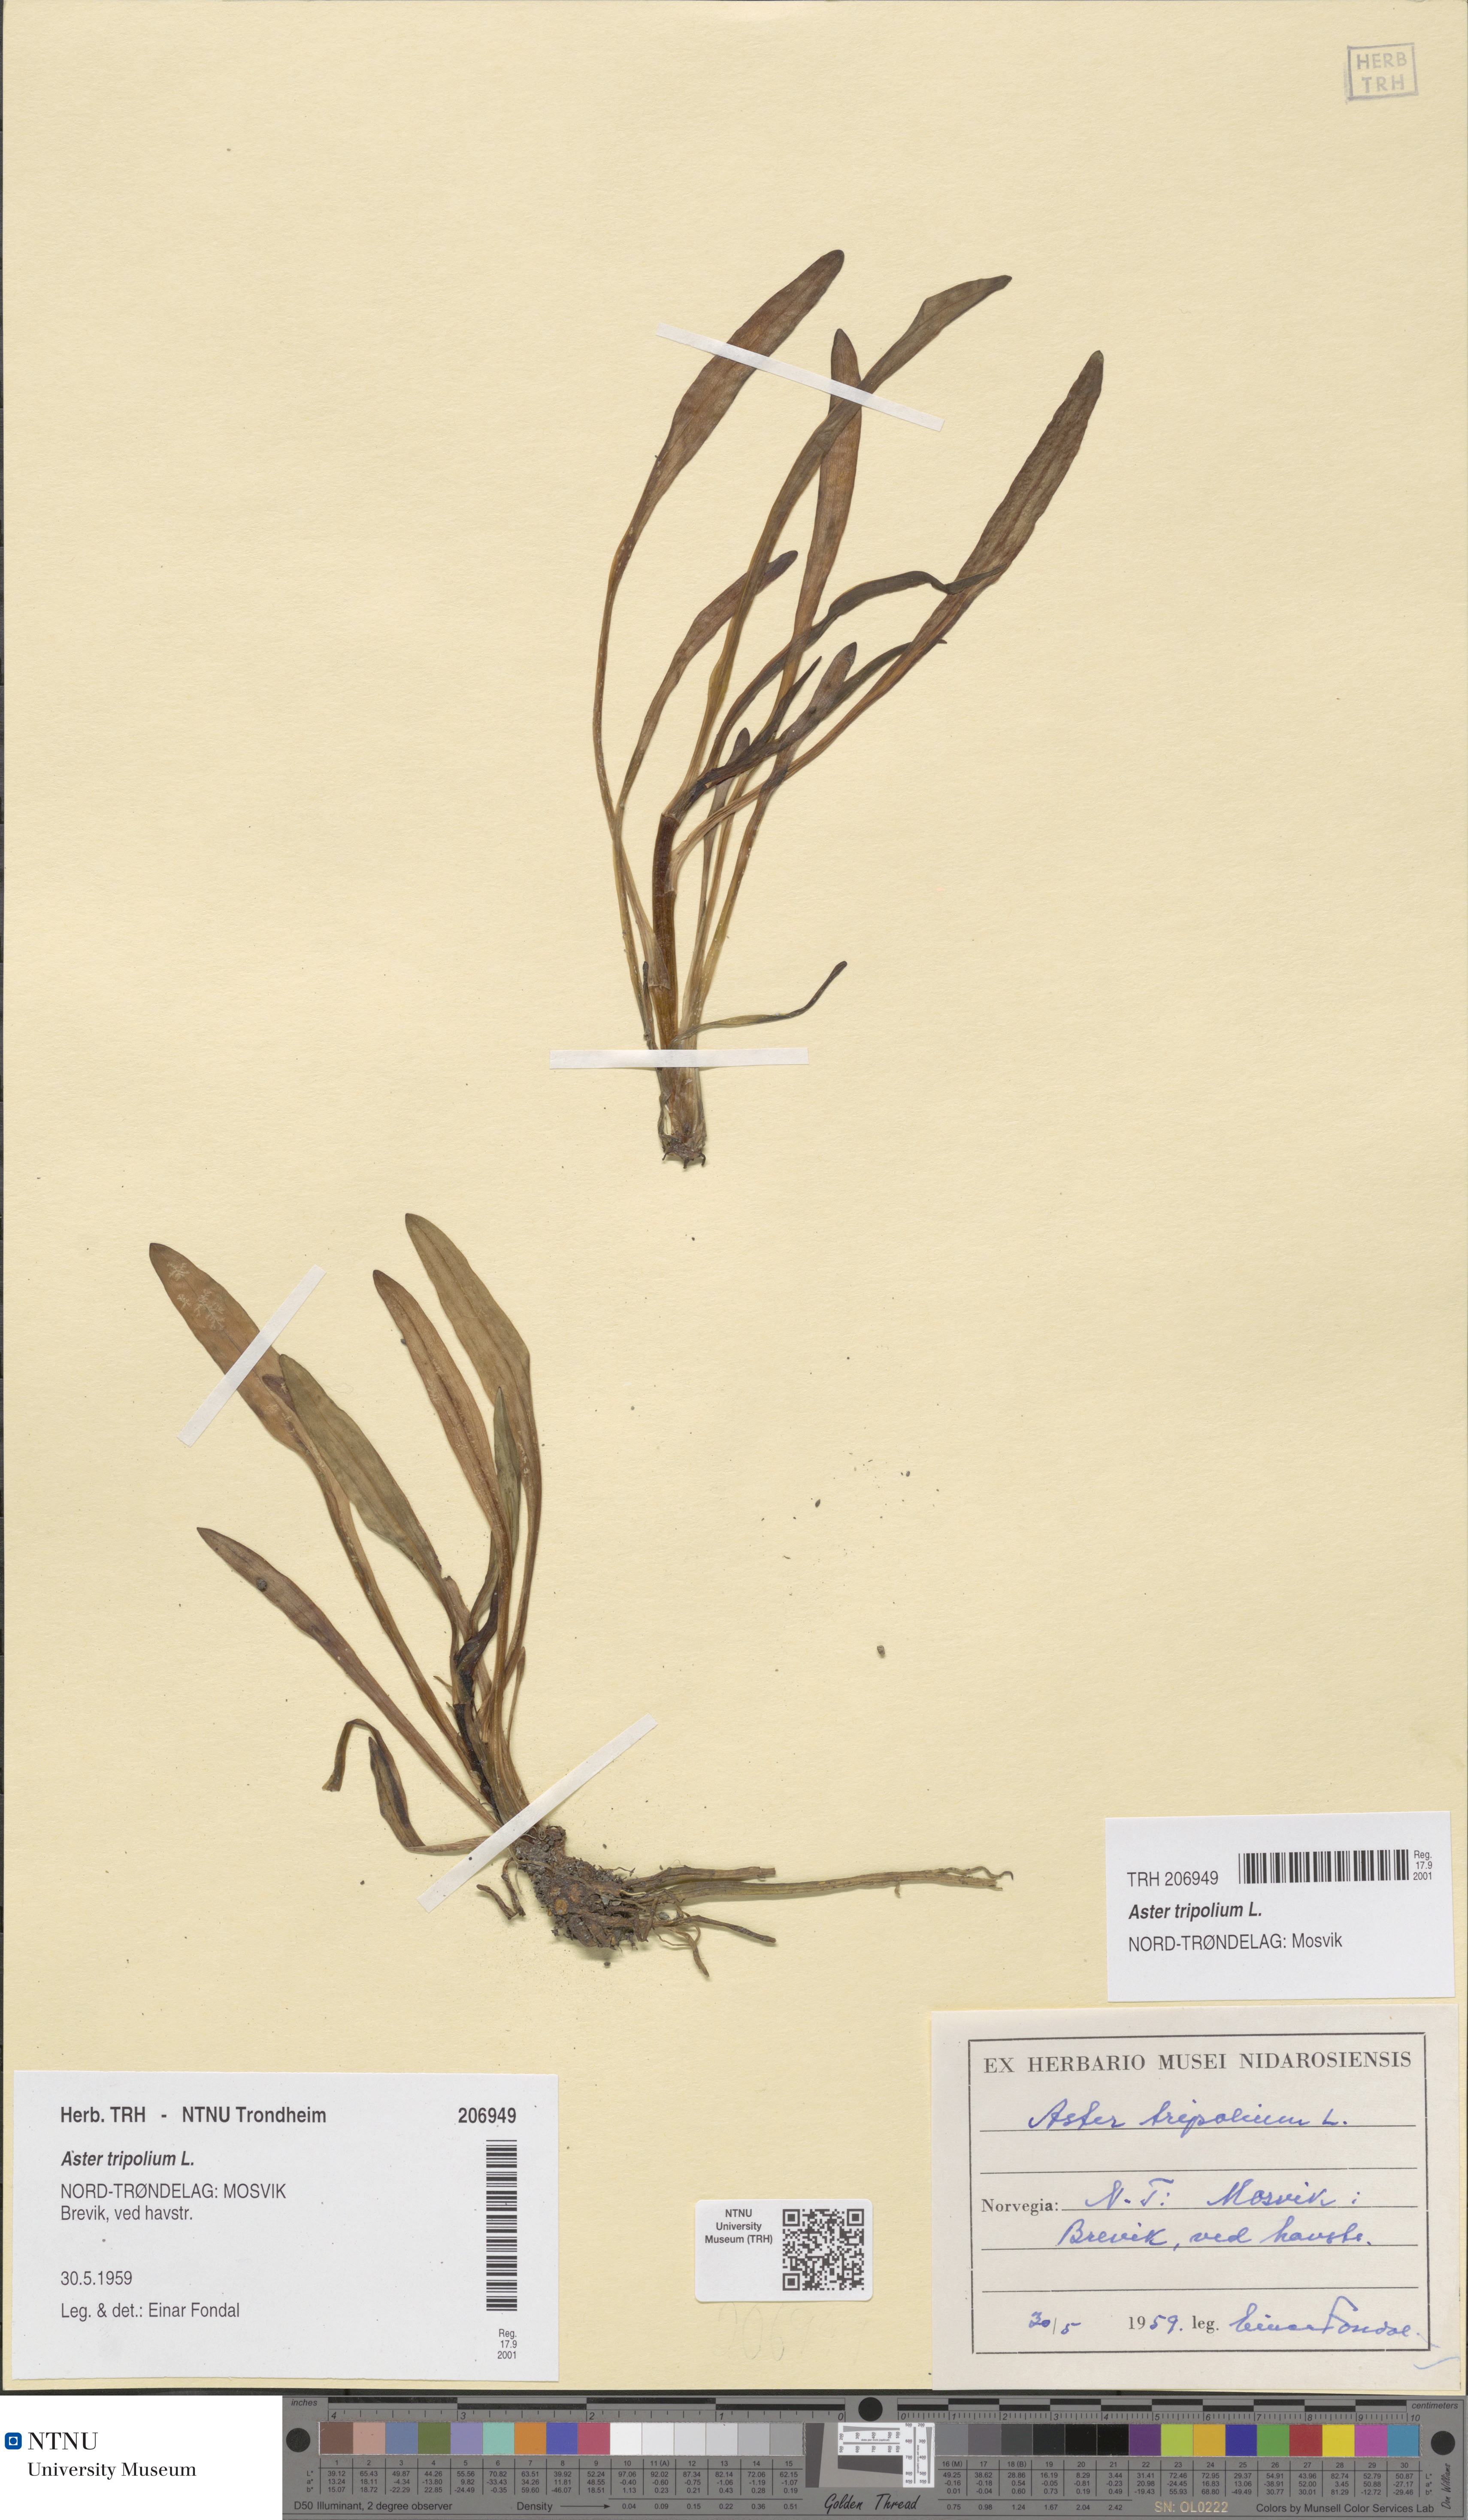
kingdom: Plantae
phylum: Tracheophyta
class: Magnoliopsida
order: Asterales
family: Asteraceae
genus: Tripolium
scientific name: Tripolium pannonicum
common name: Sea aster
